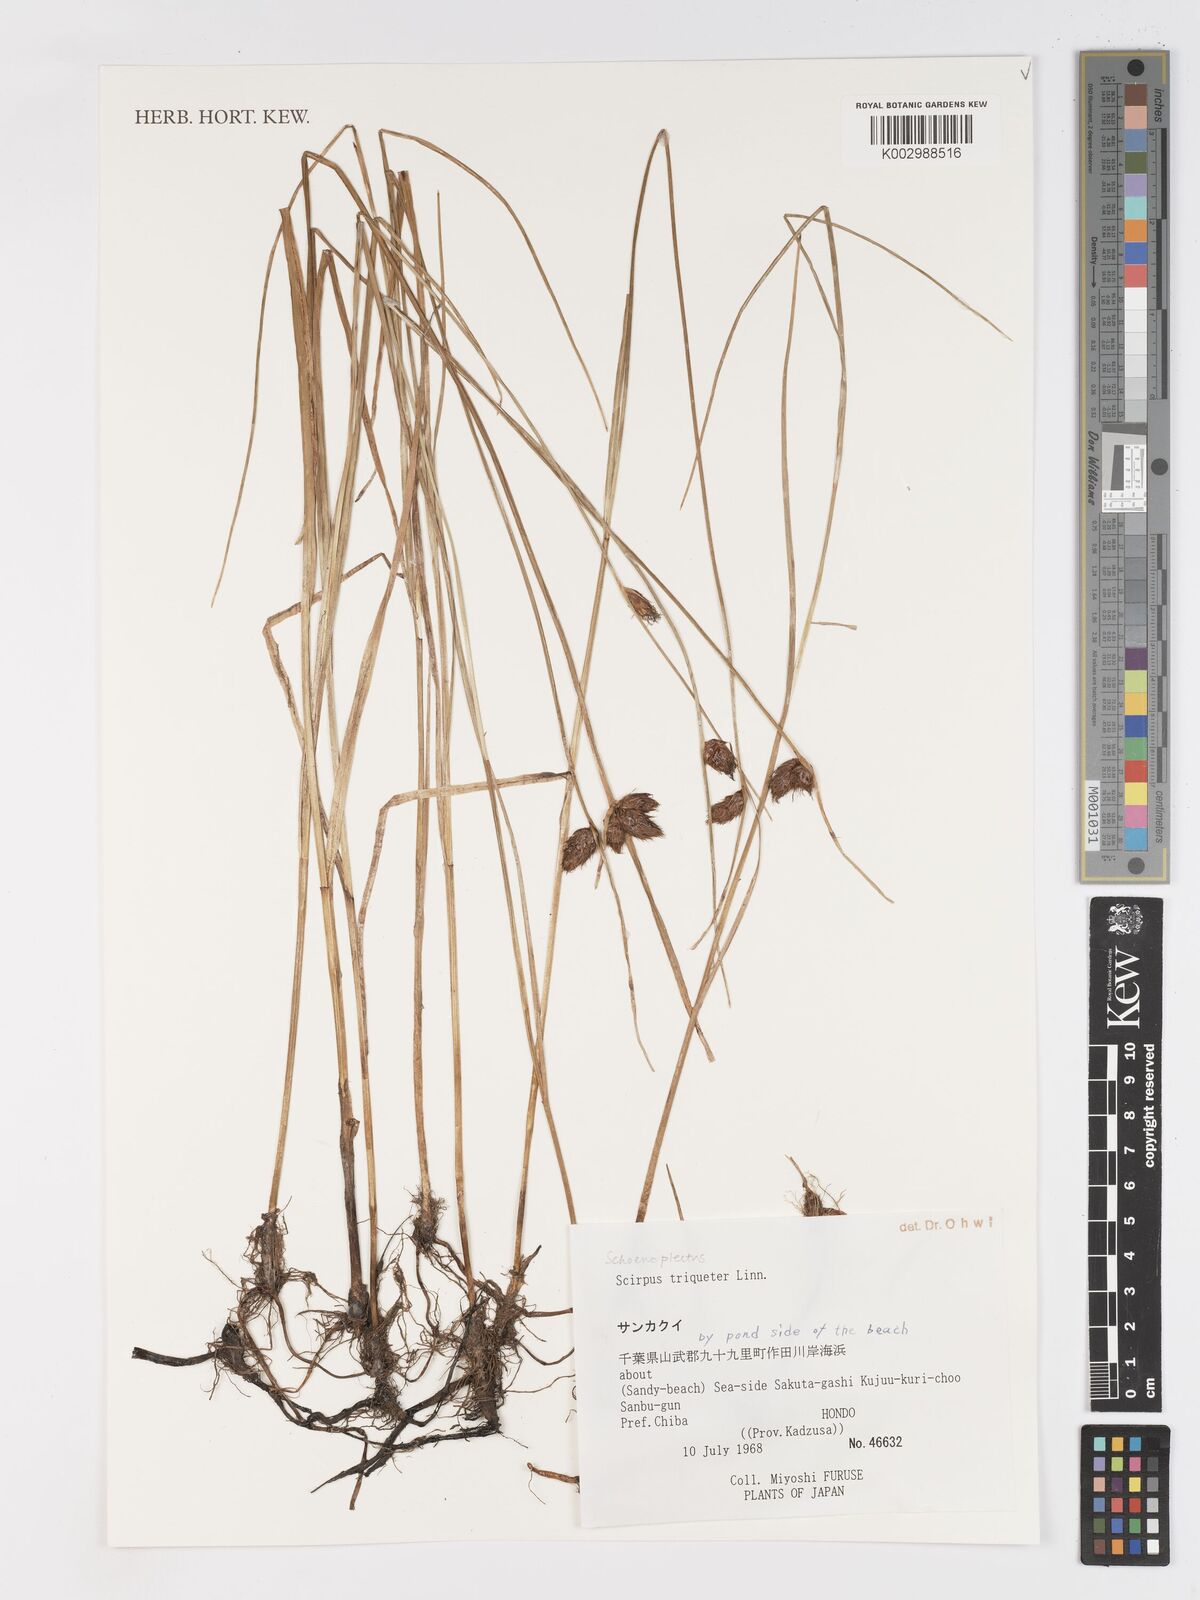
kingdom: Plantae
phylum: Tracheophyta
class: Liliopsida
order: Poales
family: Cyperaceae
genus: Schoenoplectus
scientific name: Schoenoplectus triqueter
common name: Triangular club-rush
